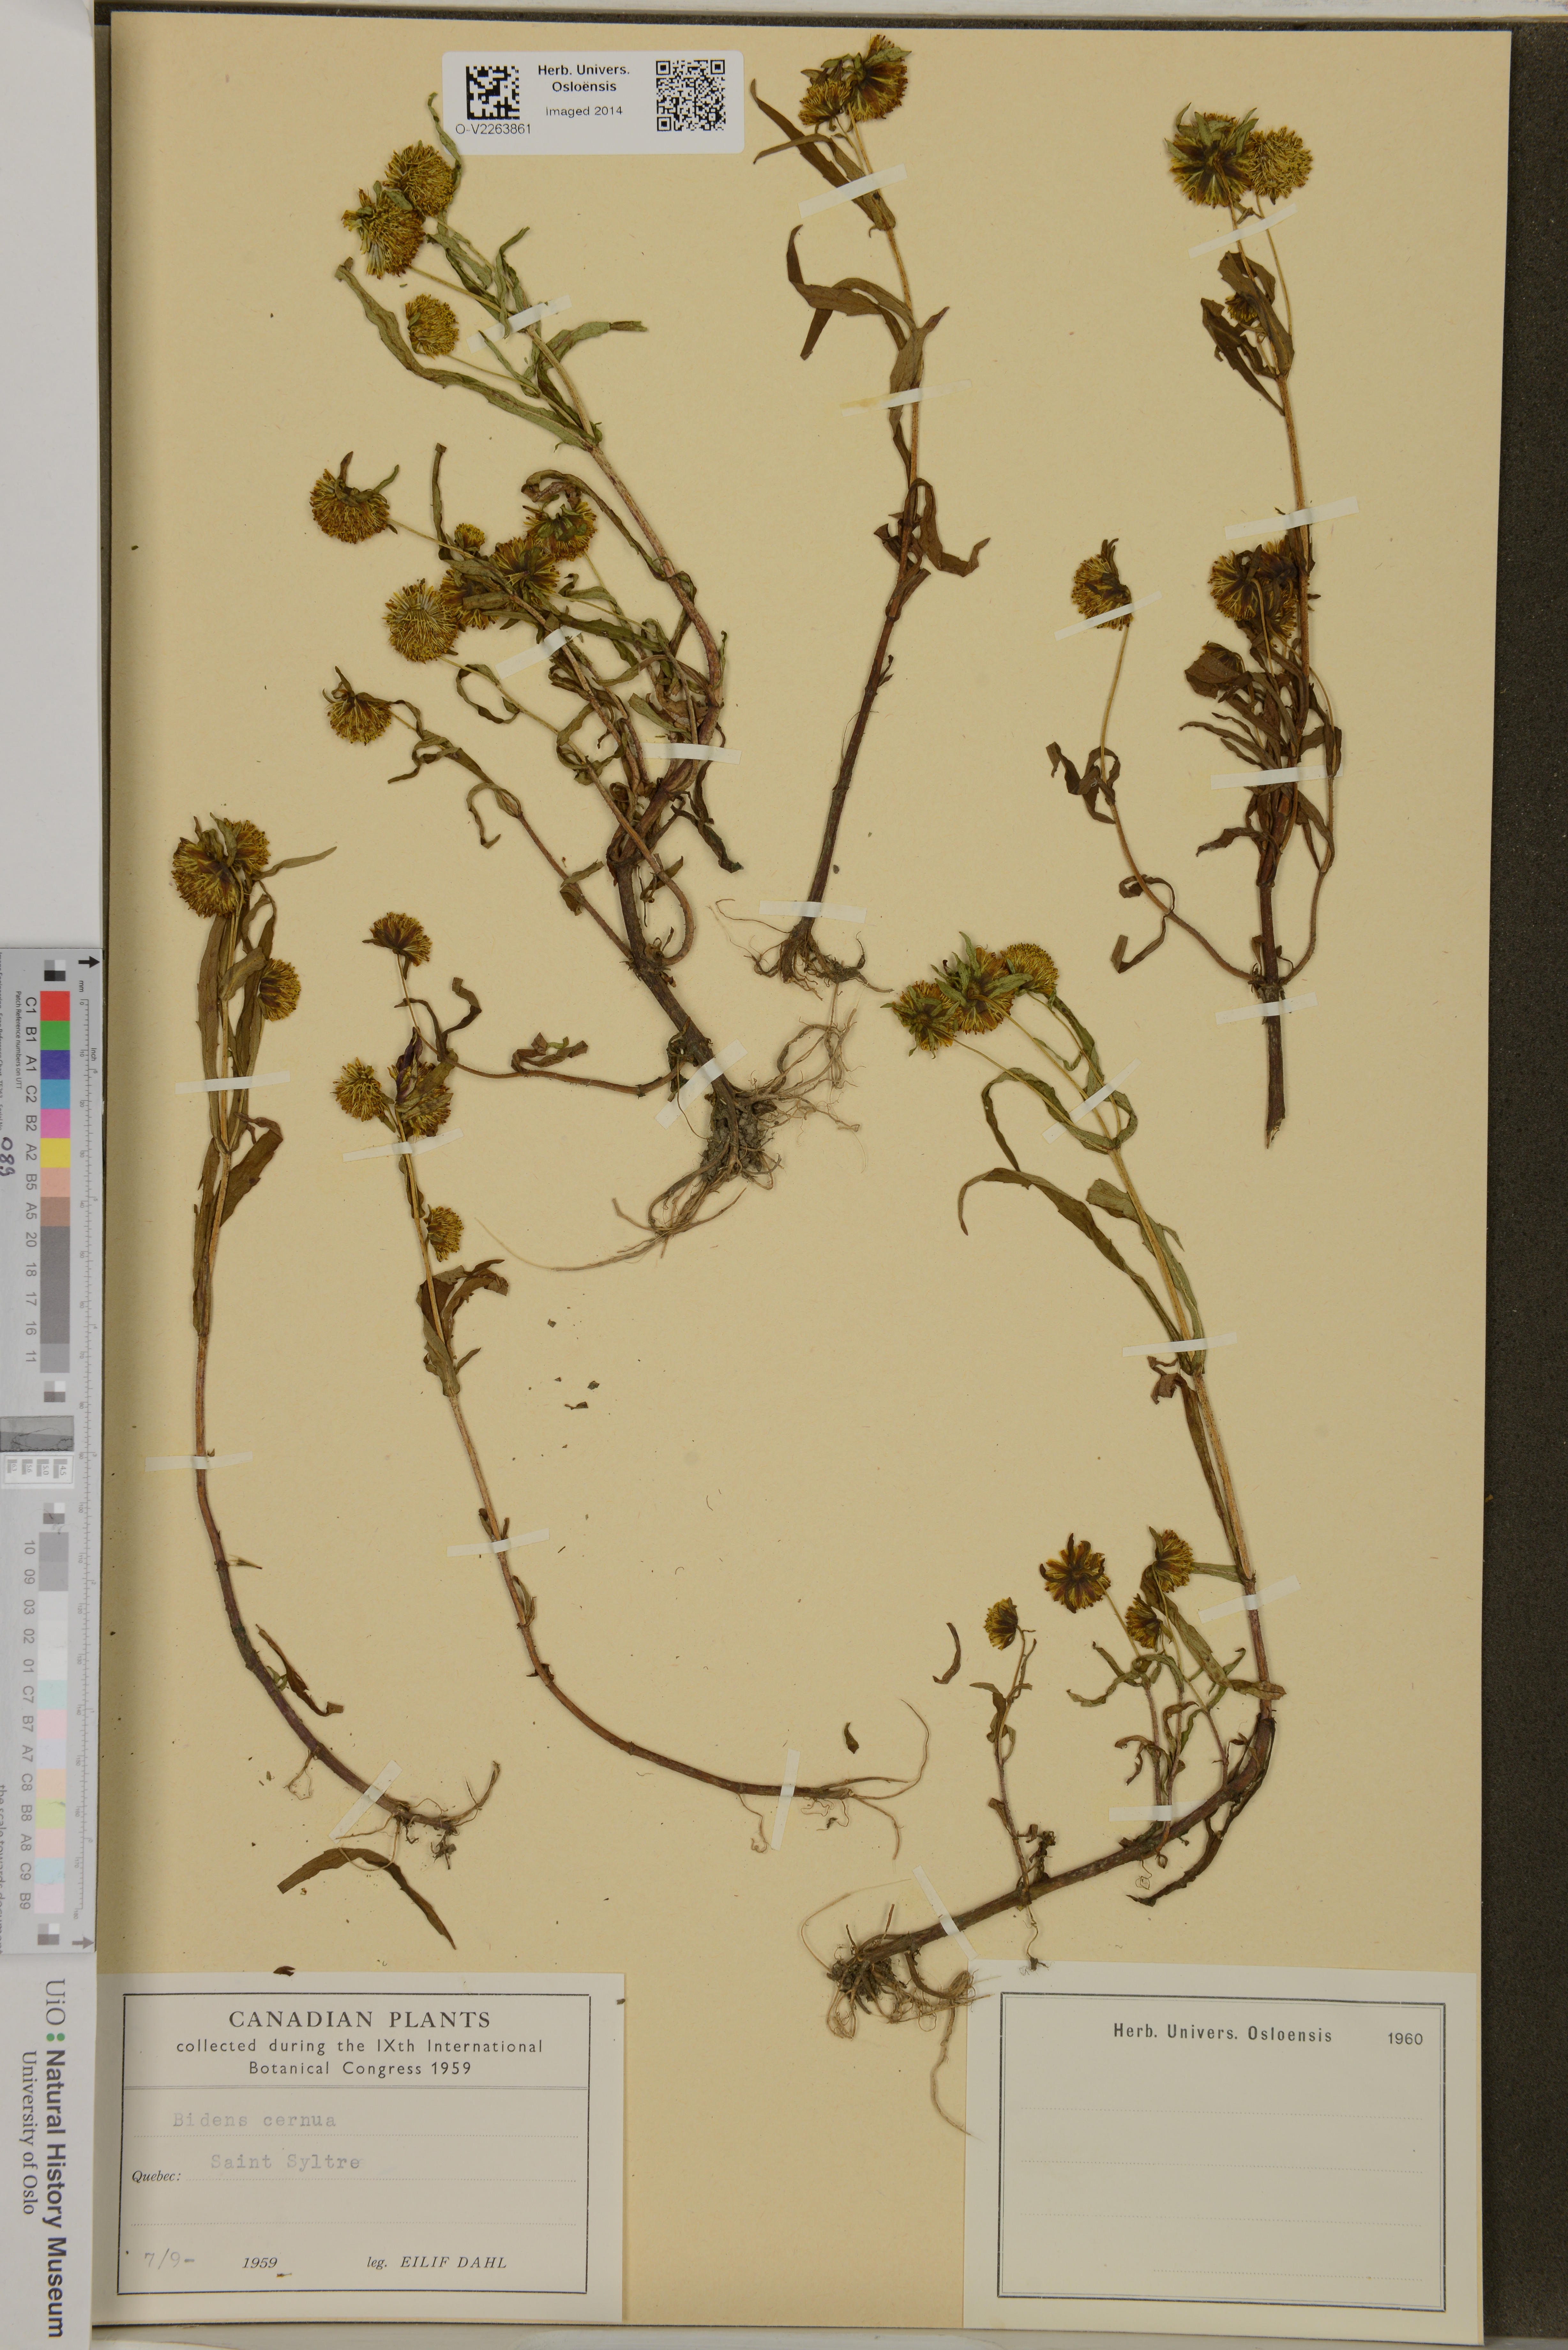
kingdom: Plantae
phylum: Tracheophyta
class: Magnoliopsida
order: Asterales
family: Asteraceae
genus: Bidens
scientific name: Bidens cernua
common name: Nodding bur-marigold
